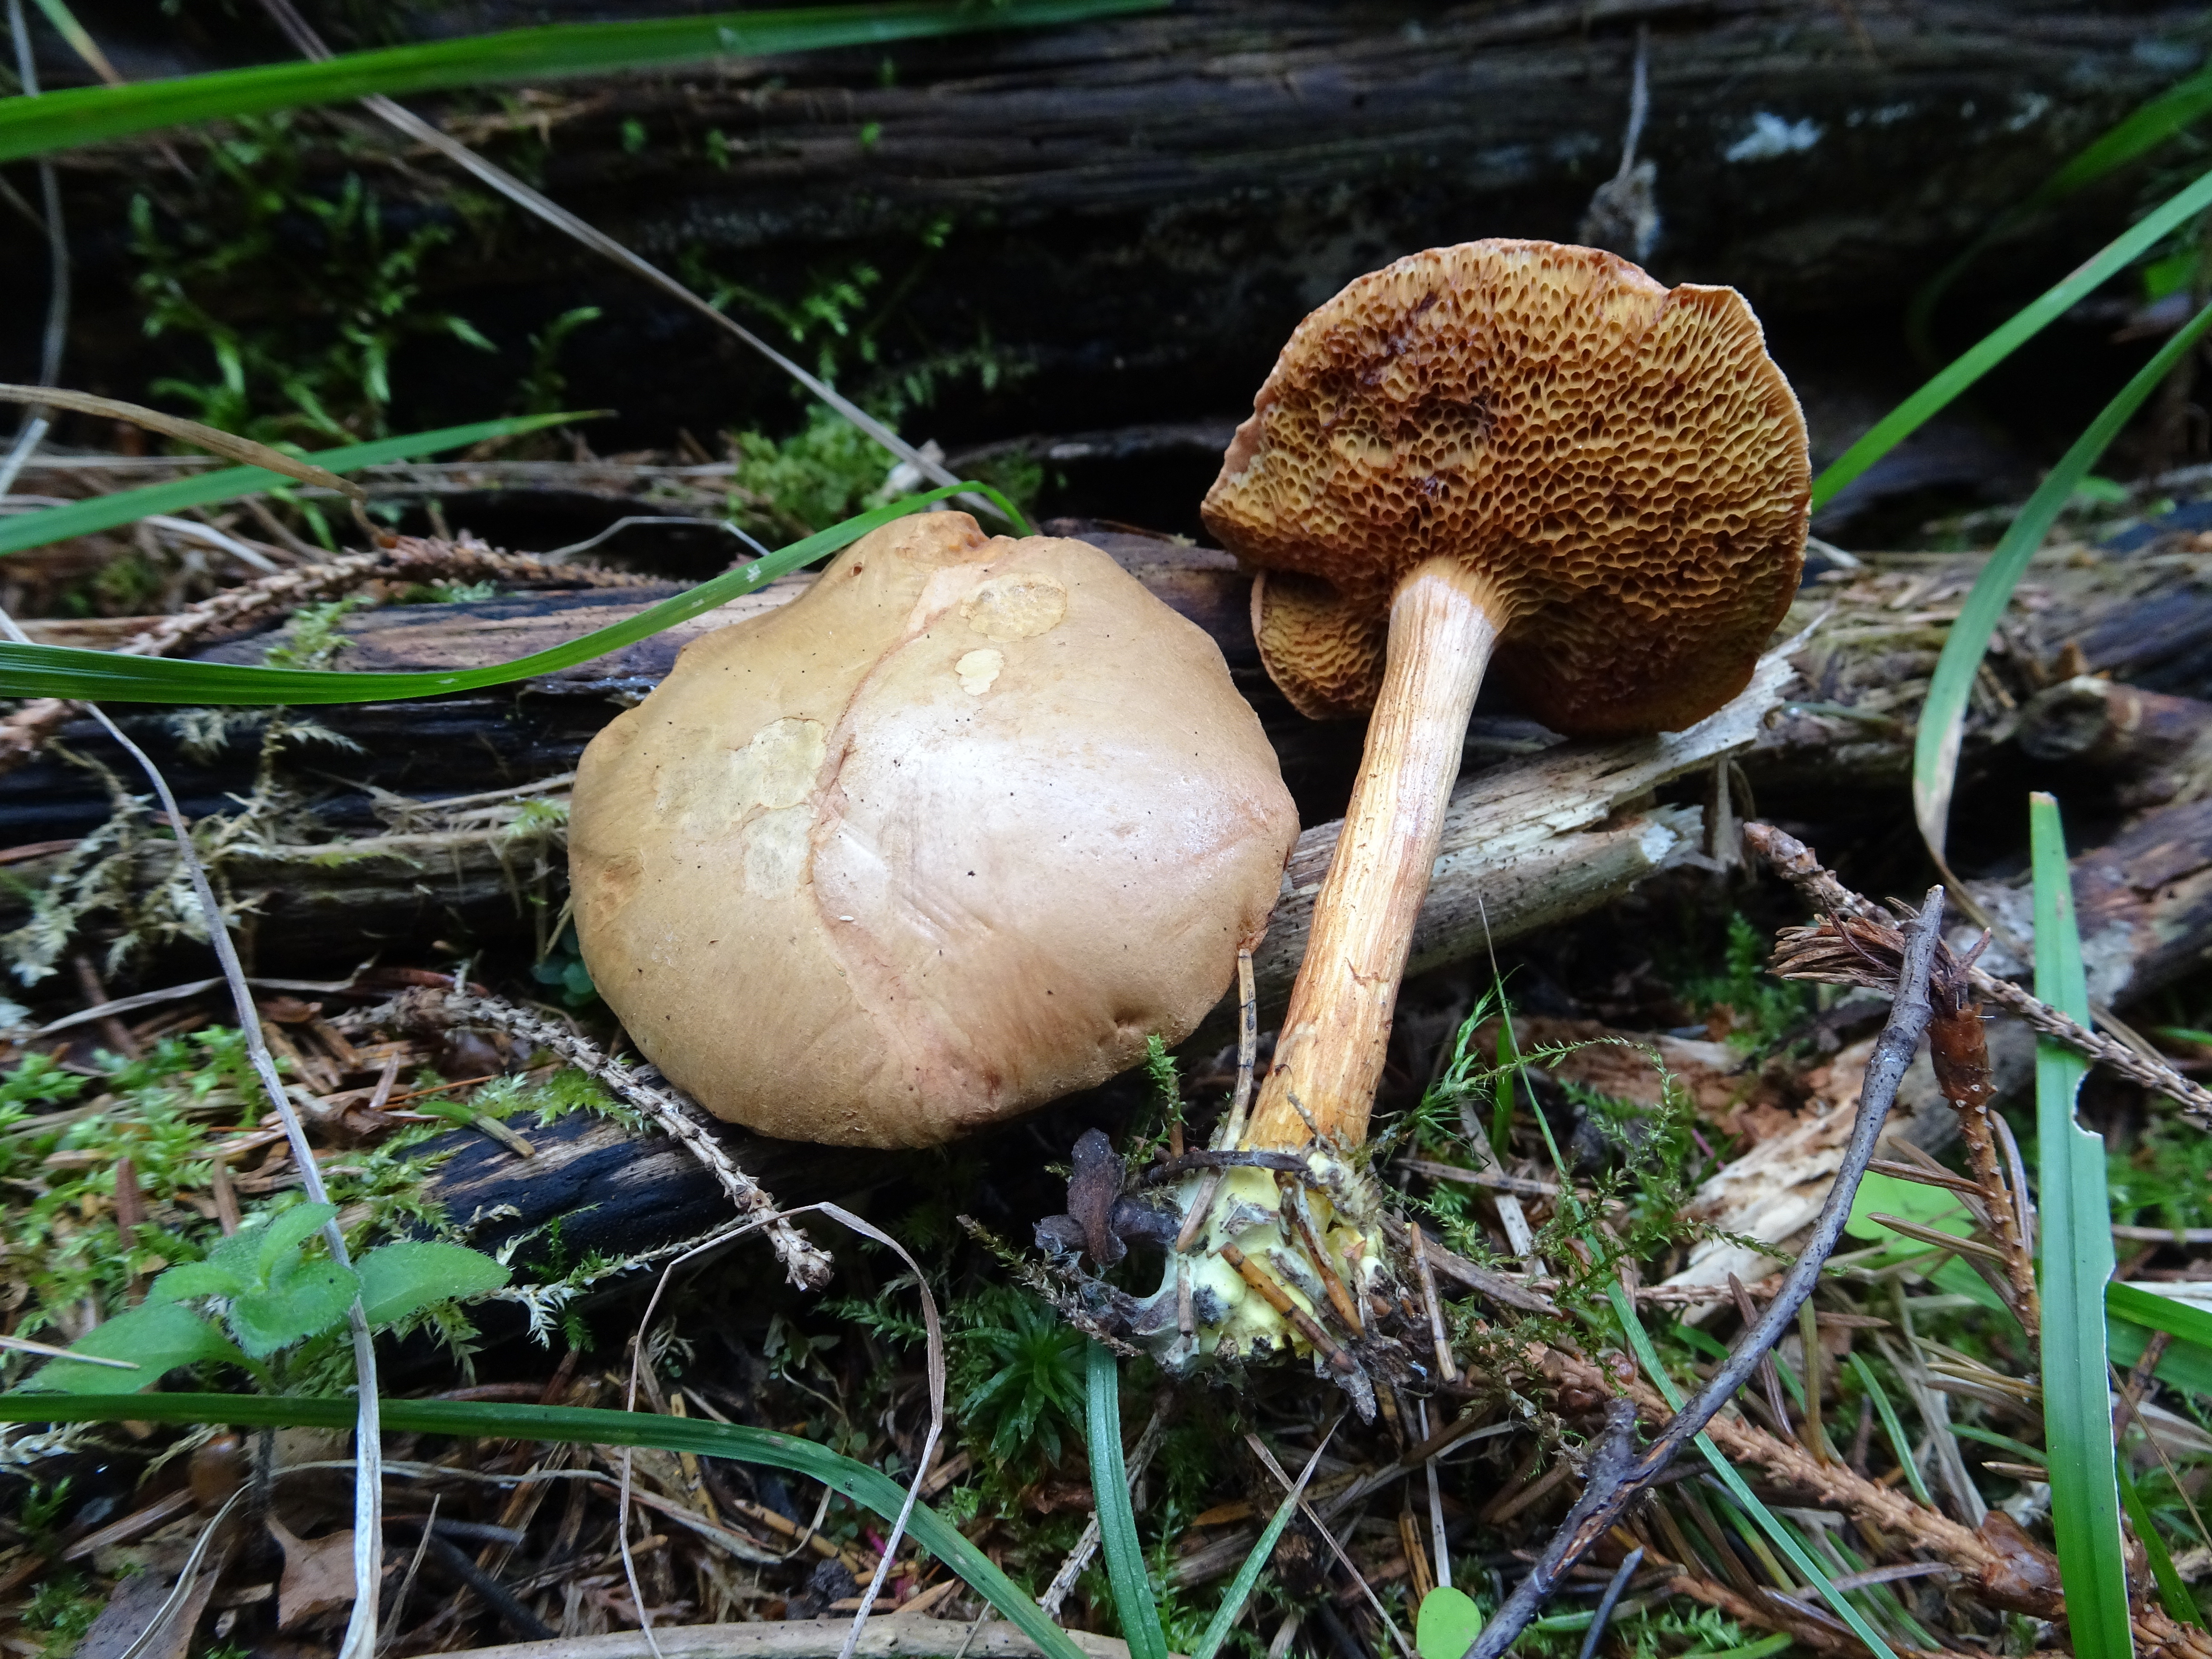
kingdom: Fungi
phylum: Basidiomycota
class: Agaricomycetes
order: Boletales
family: Boletaceae
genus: Chalciporus
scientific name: Chalciporus piperatus
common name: Peppery bolete
